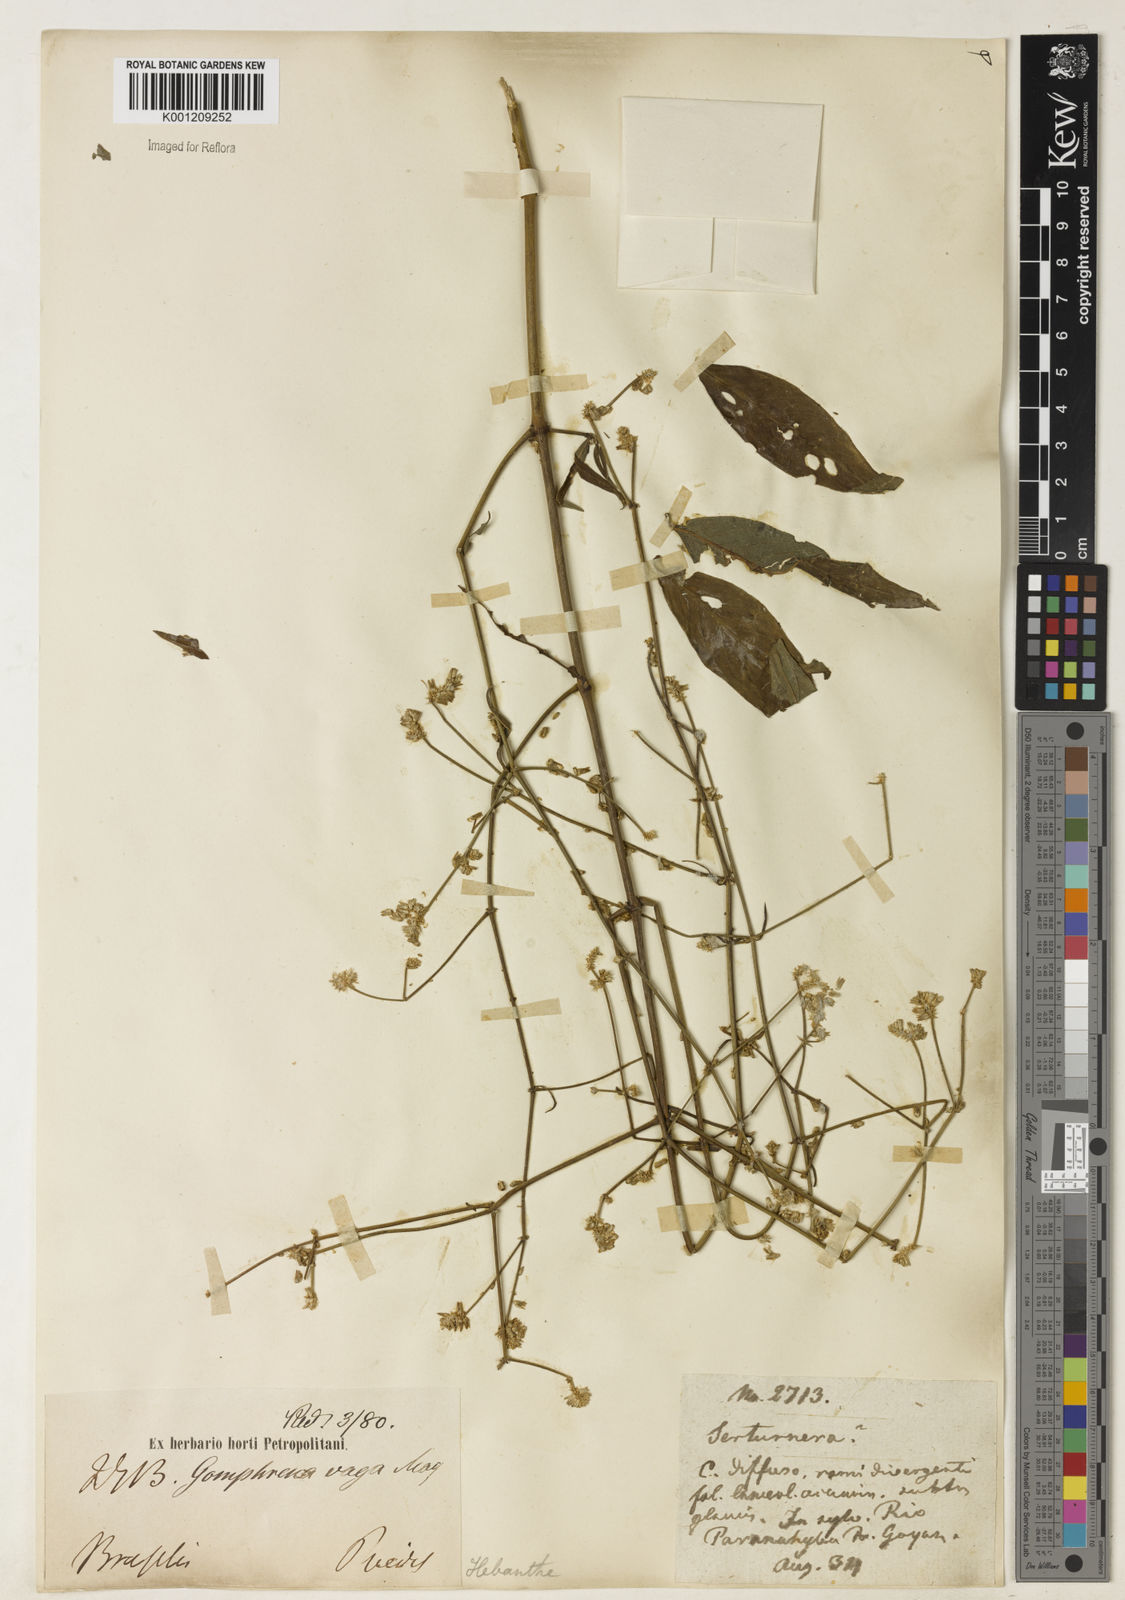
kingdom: Plantae
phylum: Tracheophyta
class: Magnoliopsida
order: Caryophyllales
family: Amaranthaceae
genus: Gomphrena
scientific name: Gomphrena vaga
